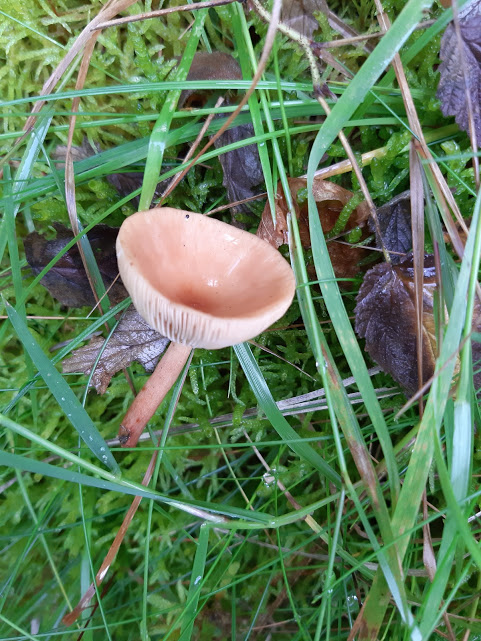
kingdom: Fungi
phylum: Basidiomycota
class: Agaricomycetes
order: Russulales
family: Russulaceae
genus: Lactarius
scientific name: Lactarius
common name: mælkehat
